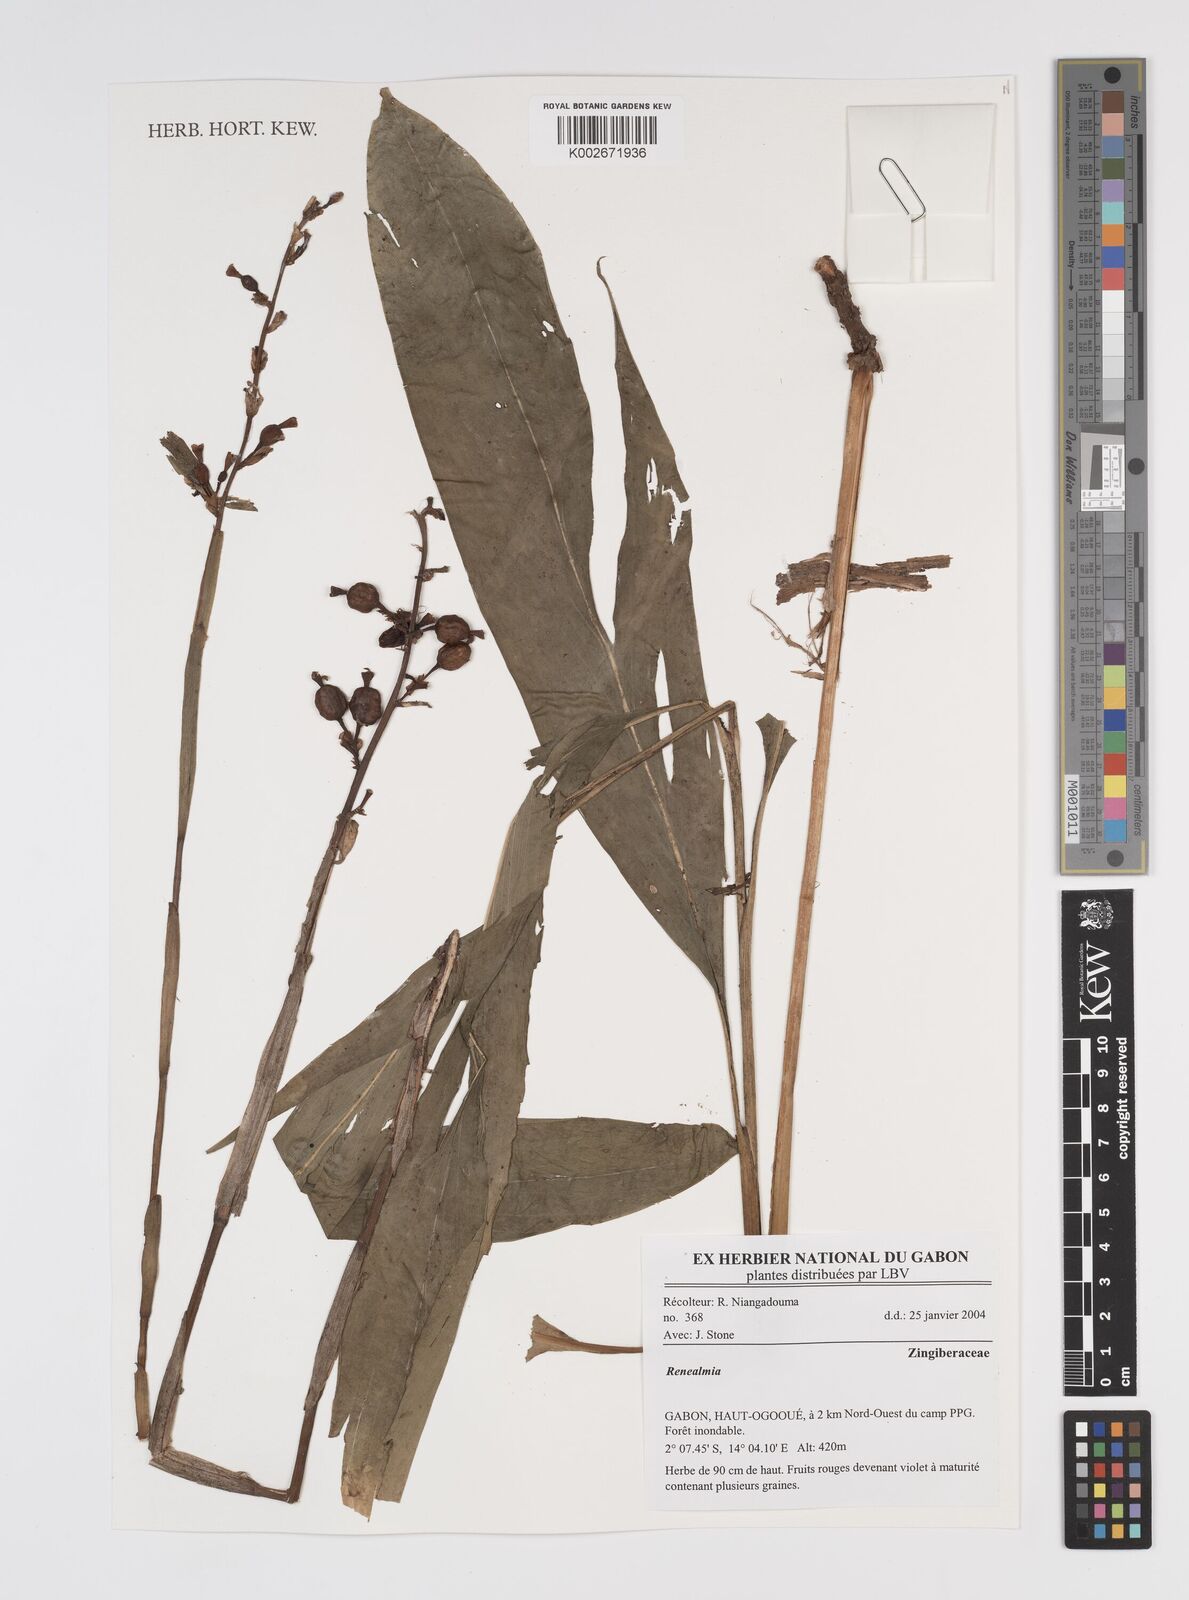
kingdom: Plantae
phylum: Tracheophyta
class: Liliopsida
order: Zingiberales
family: Zingiberaceae
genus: Renealmia
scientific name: Renealmia
